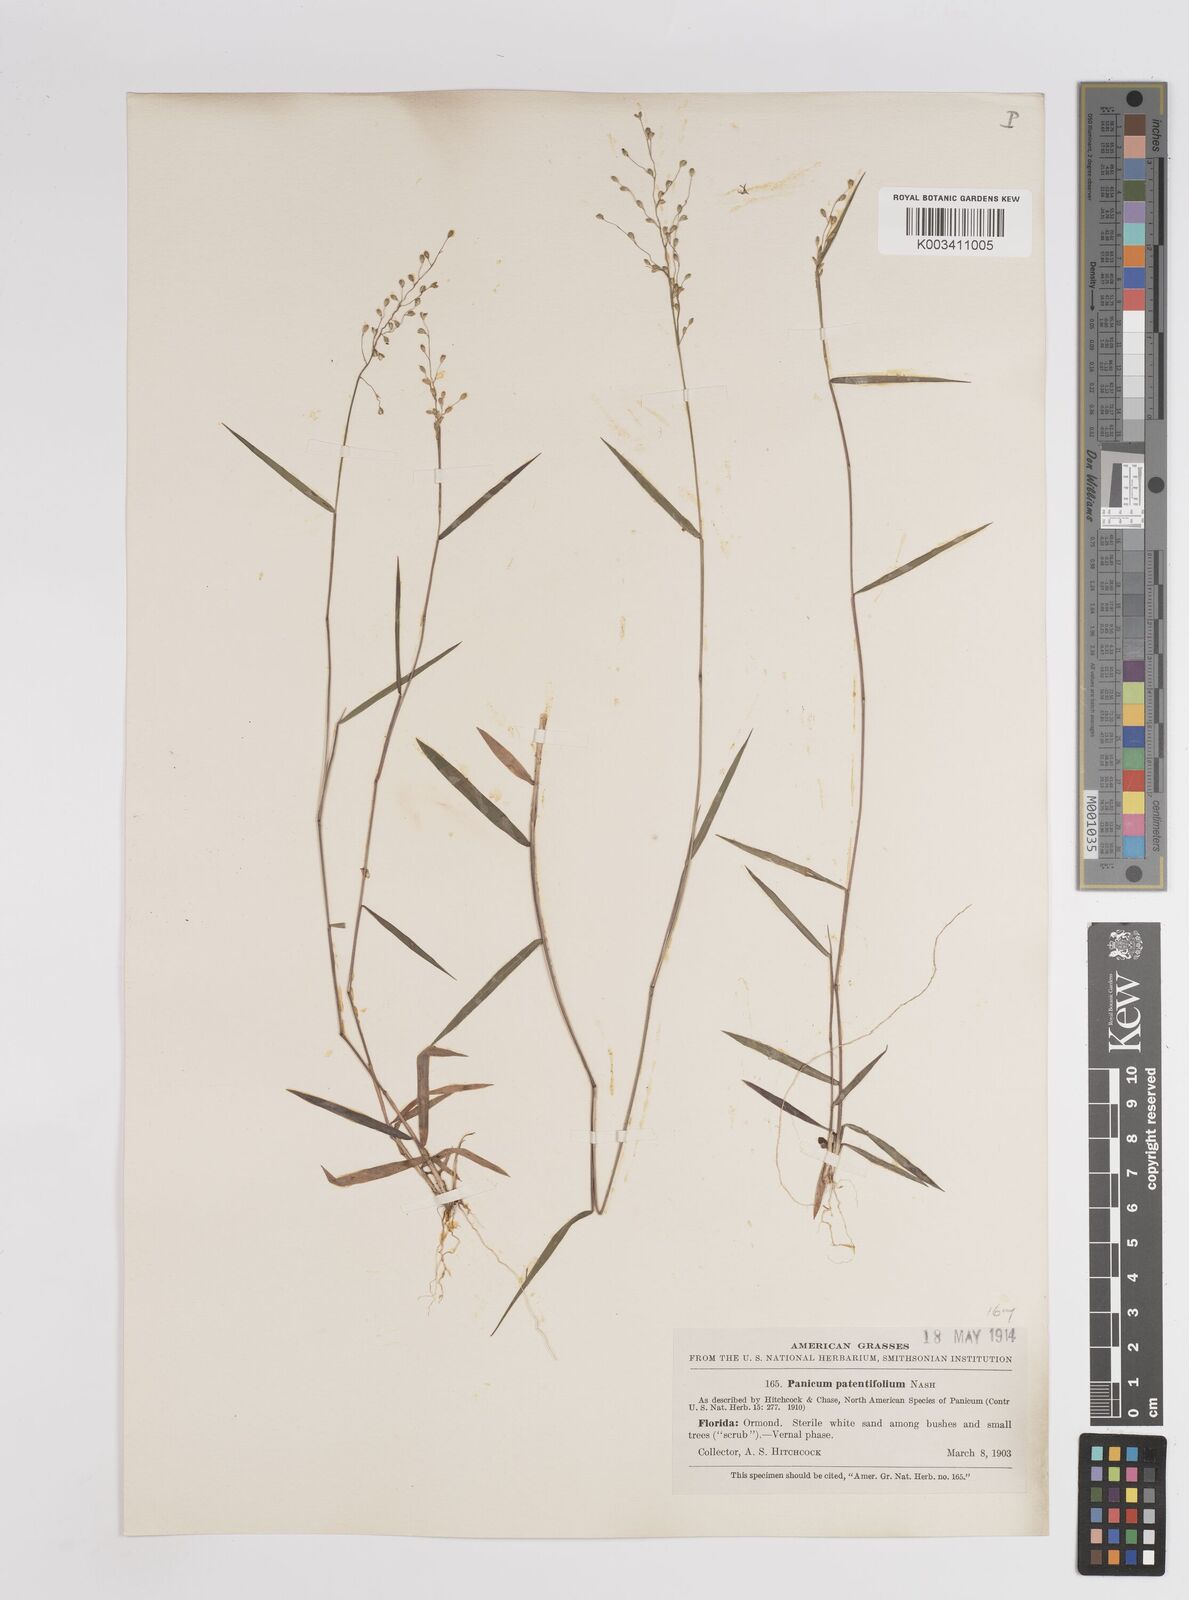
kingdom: Plantae
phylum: Tracheophyta
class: Liliopsida
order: Poales
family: Poaceae
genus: Dichanthelium
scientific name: Dichanthelium patentifolium
